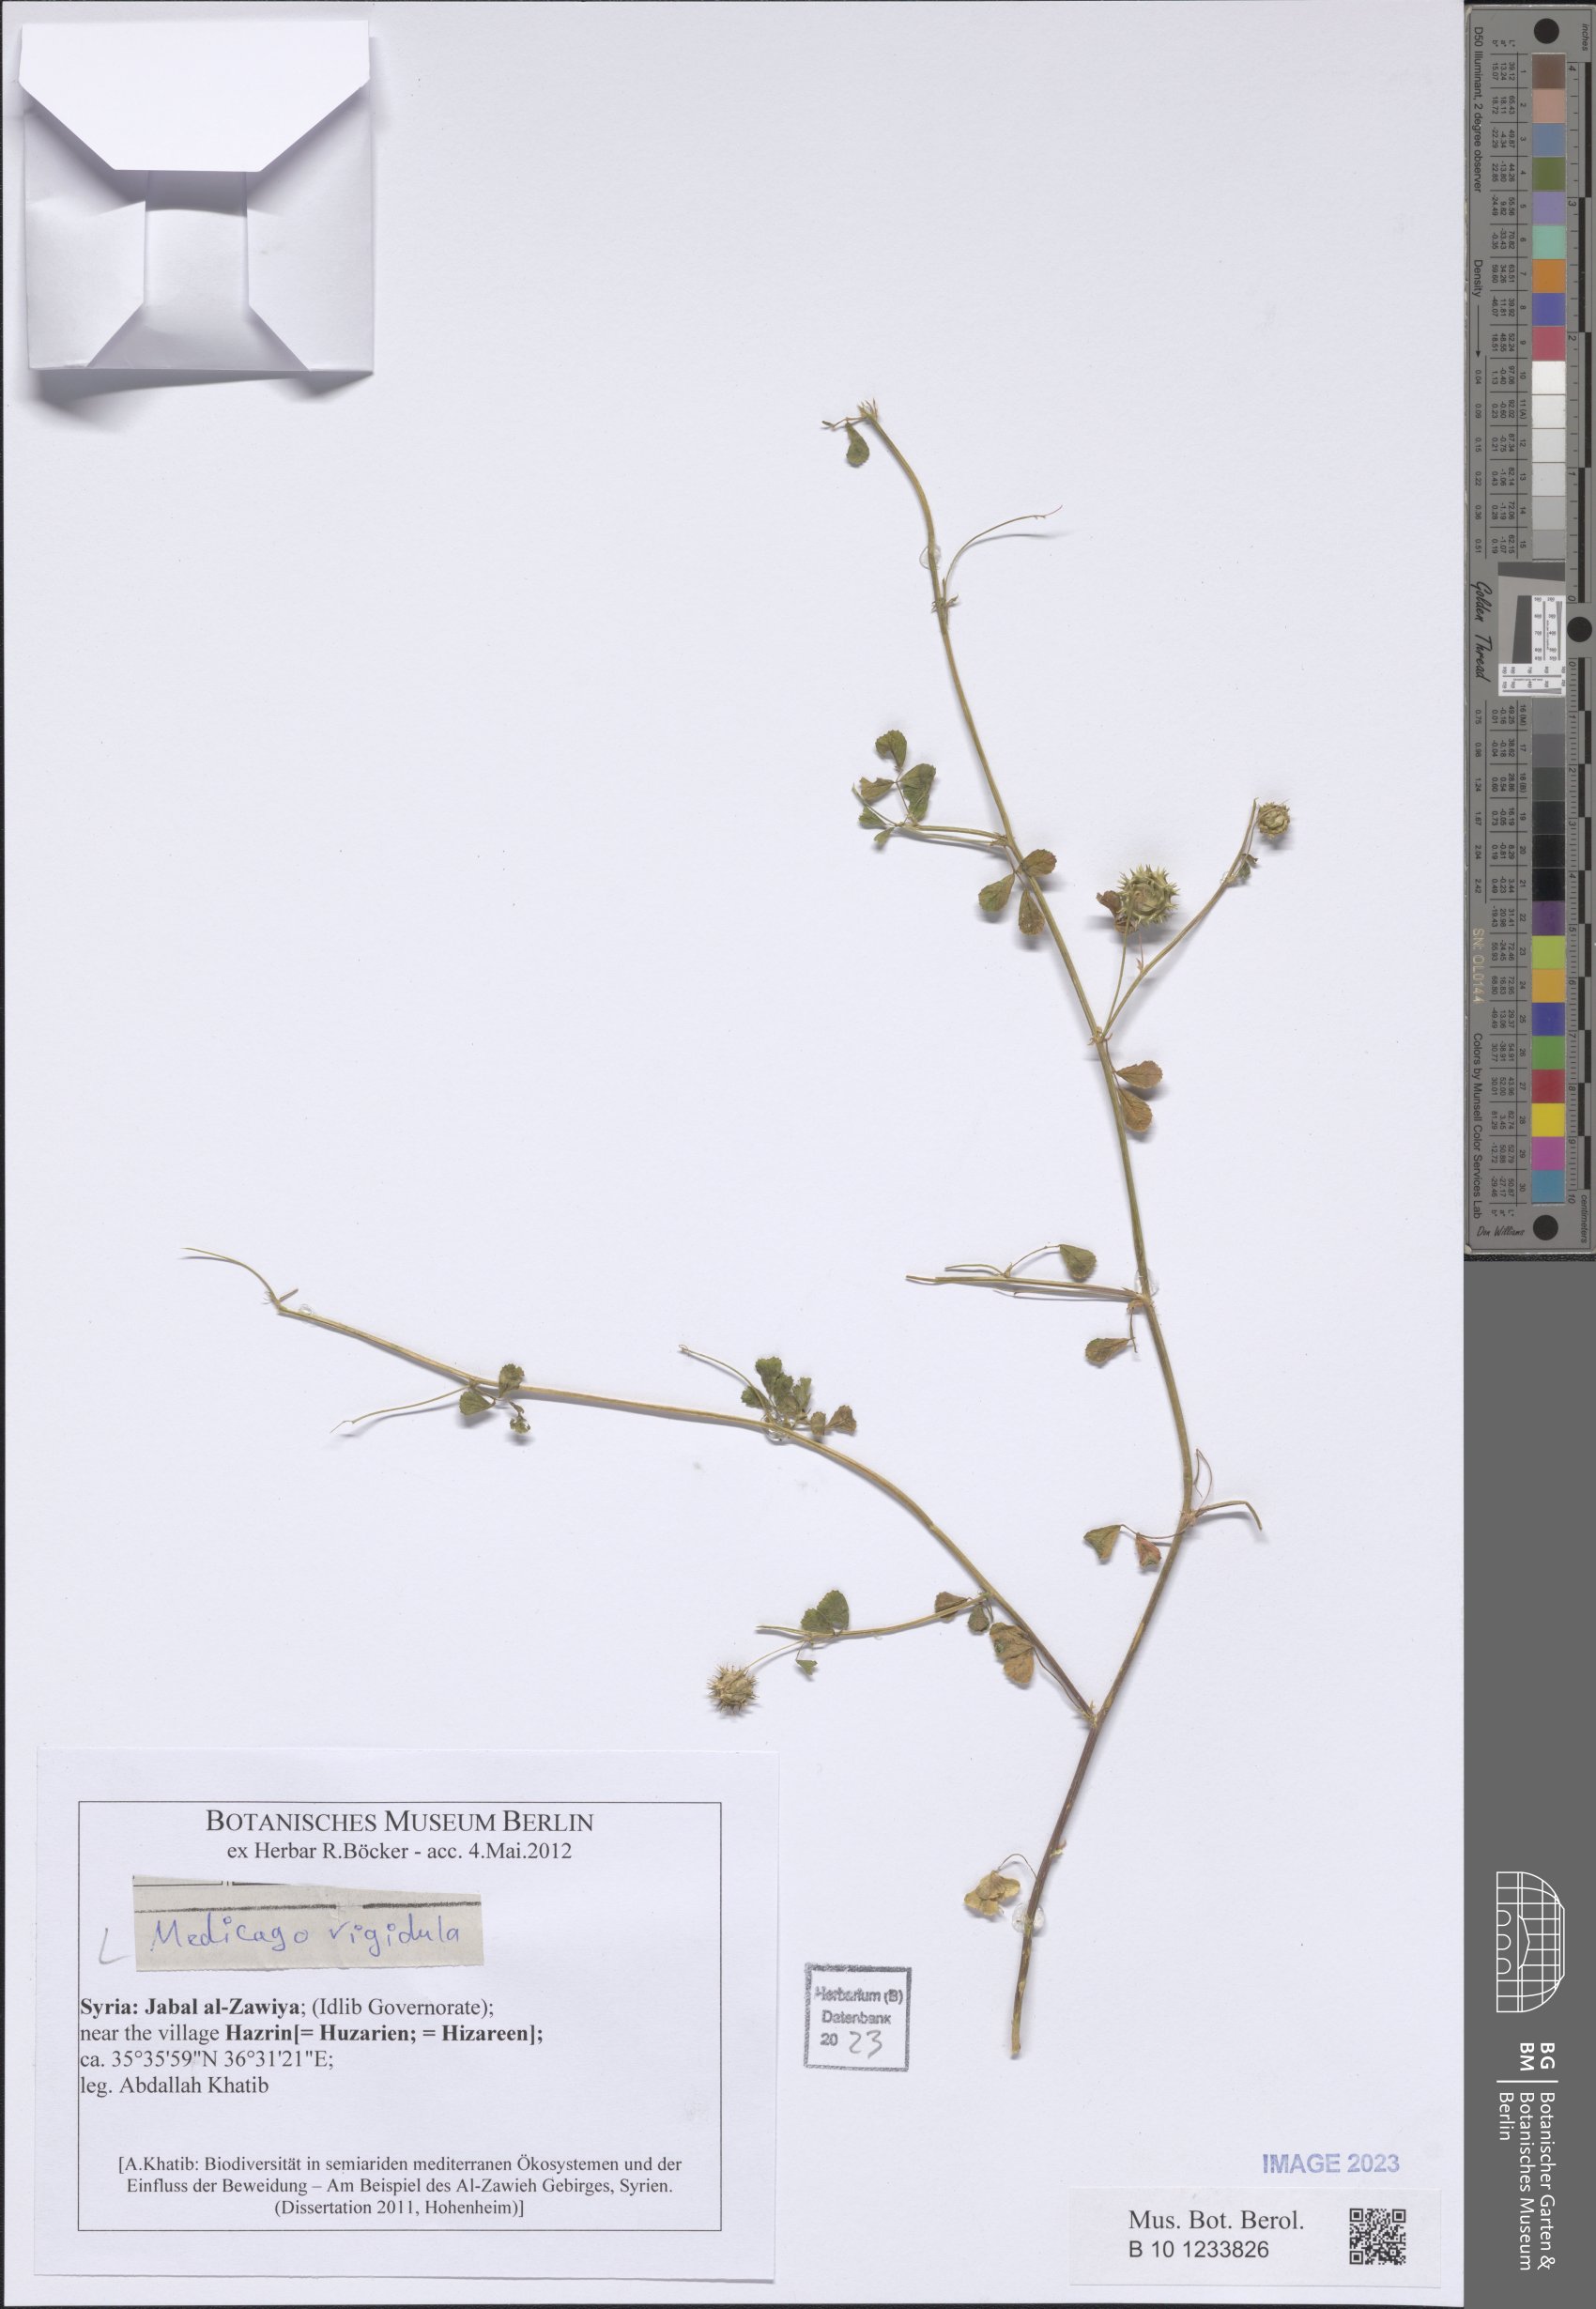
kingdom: Plantae
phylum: Tracheophyta
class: Magnoliopsida
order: Fabales
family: Fabaceae
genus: Medicago
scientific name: Medicago rigidula
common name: Tifton medic
